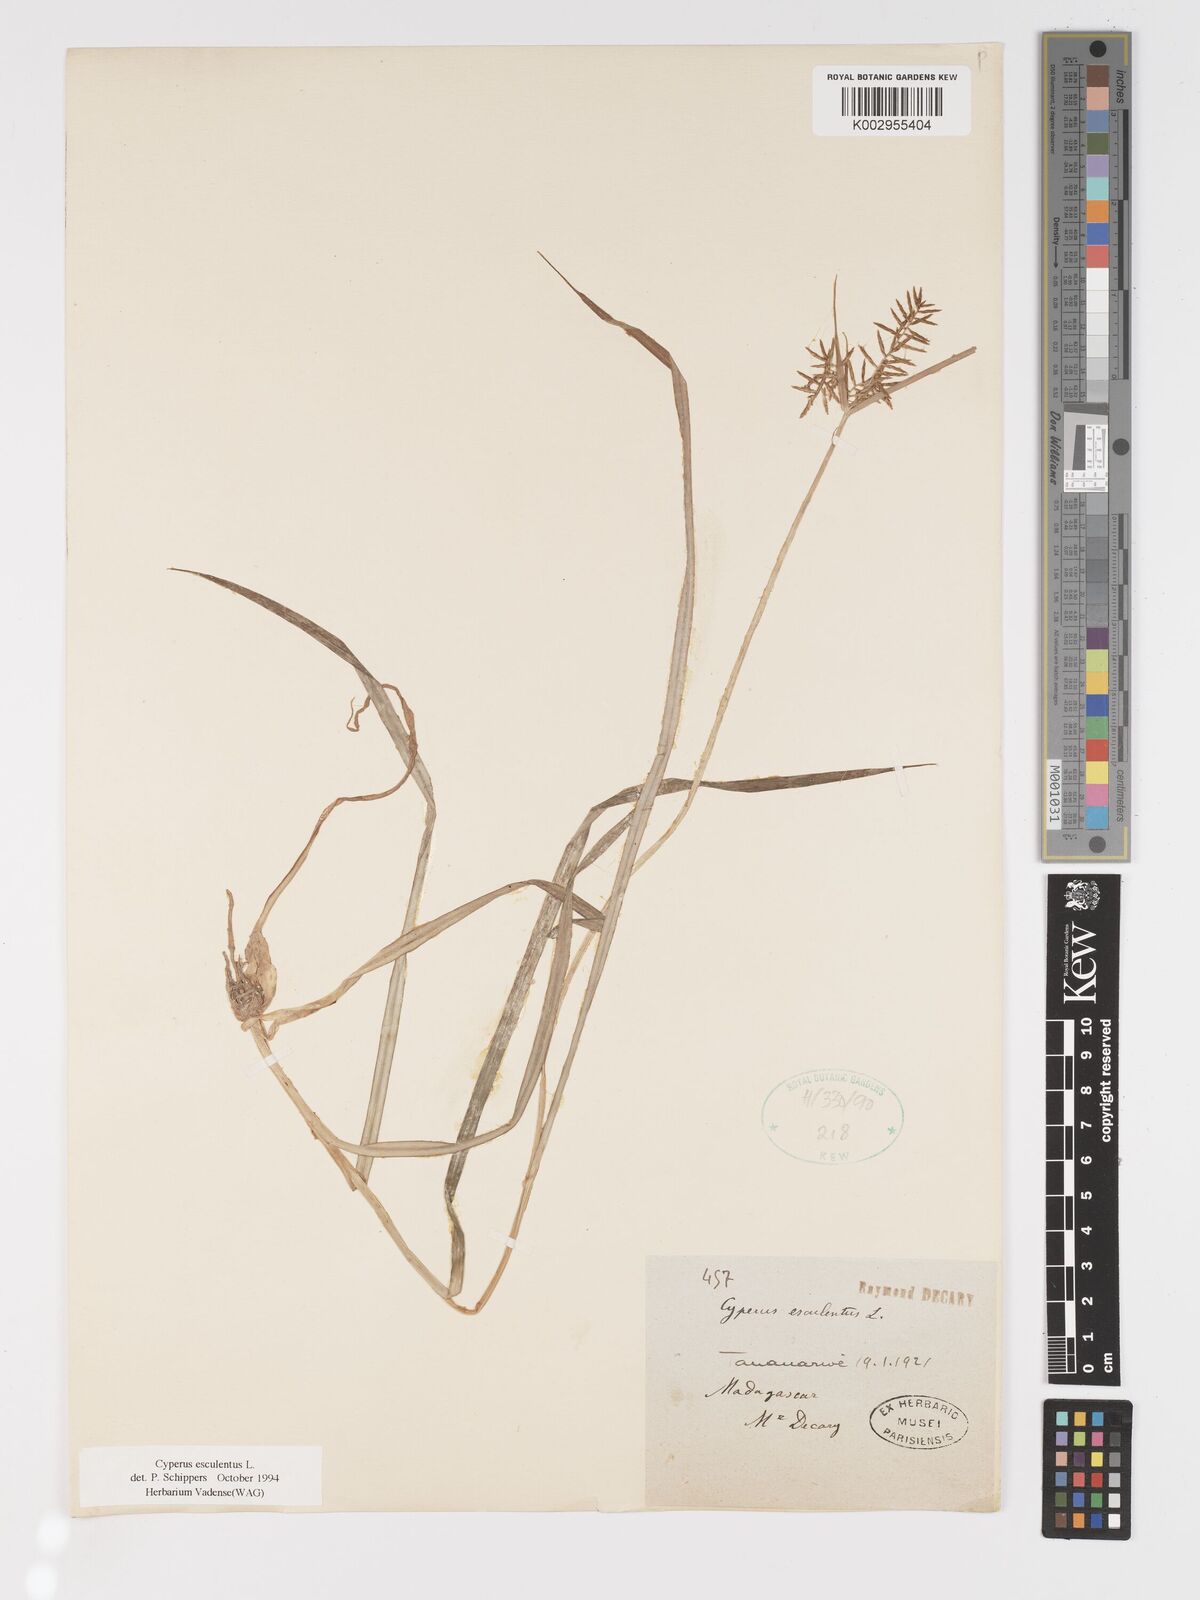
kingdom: Plantae
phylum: Tracheophyta
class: Liliopsida
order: Poales
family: Cyperaceae
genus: Cyperus
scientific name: Cyperus esculentus
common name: Yellow nutsedge
